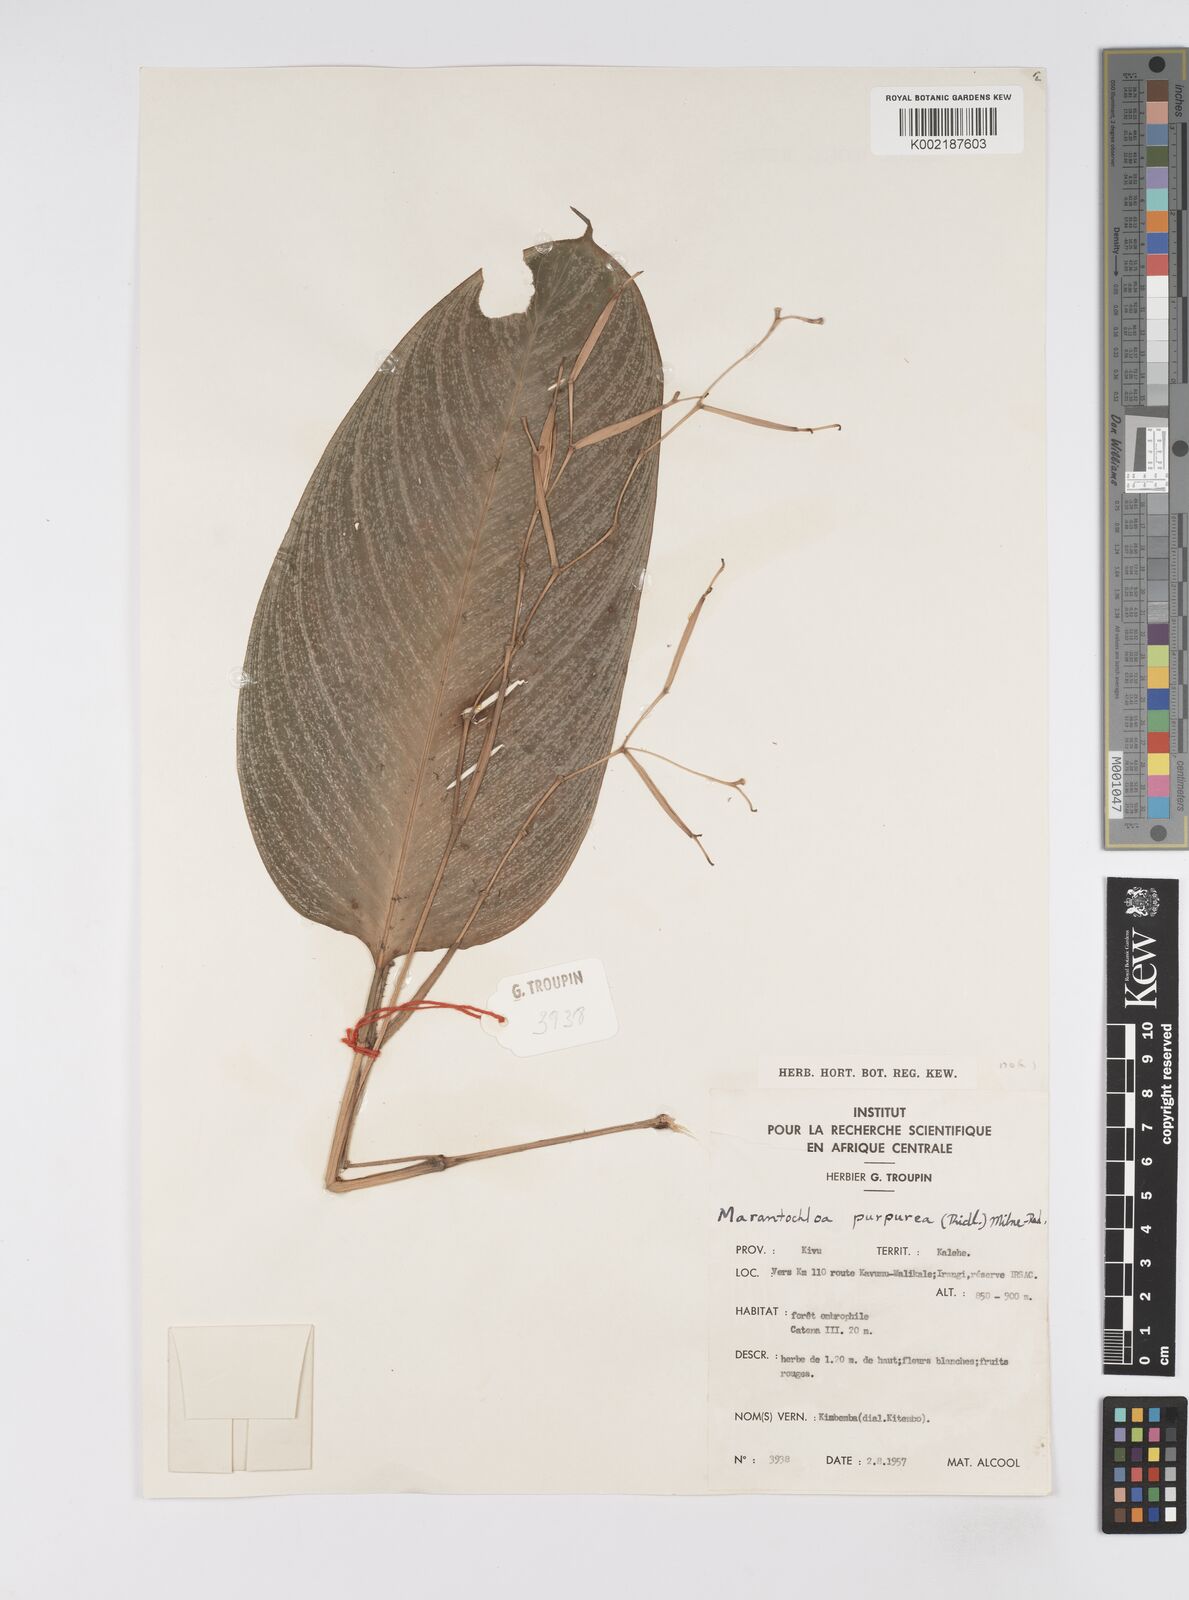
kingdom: Plantae
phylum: Tracheophyta
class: Liliopsida
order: Zingiberales
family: Marantaceae
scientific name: Marantaceae
